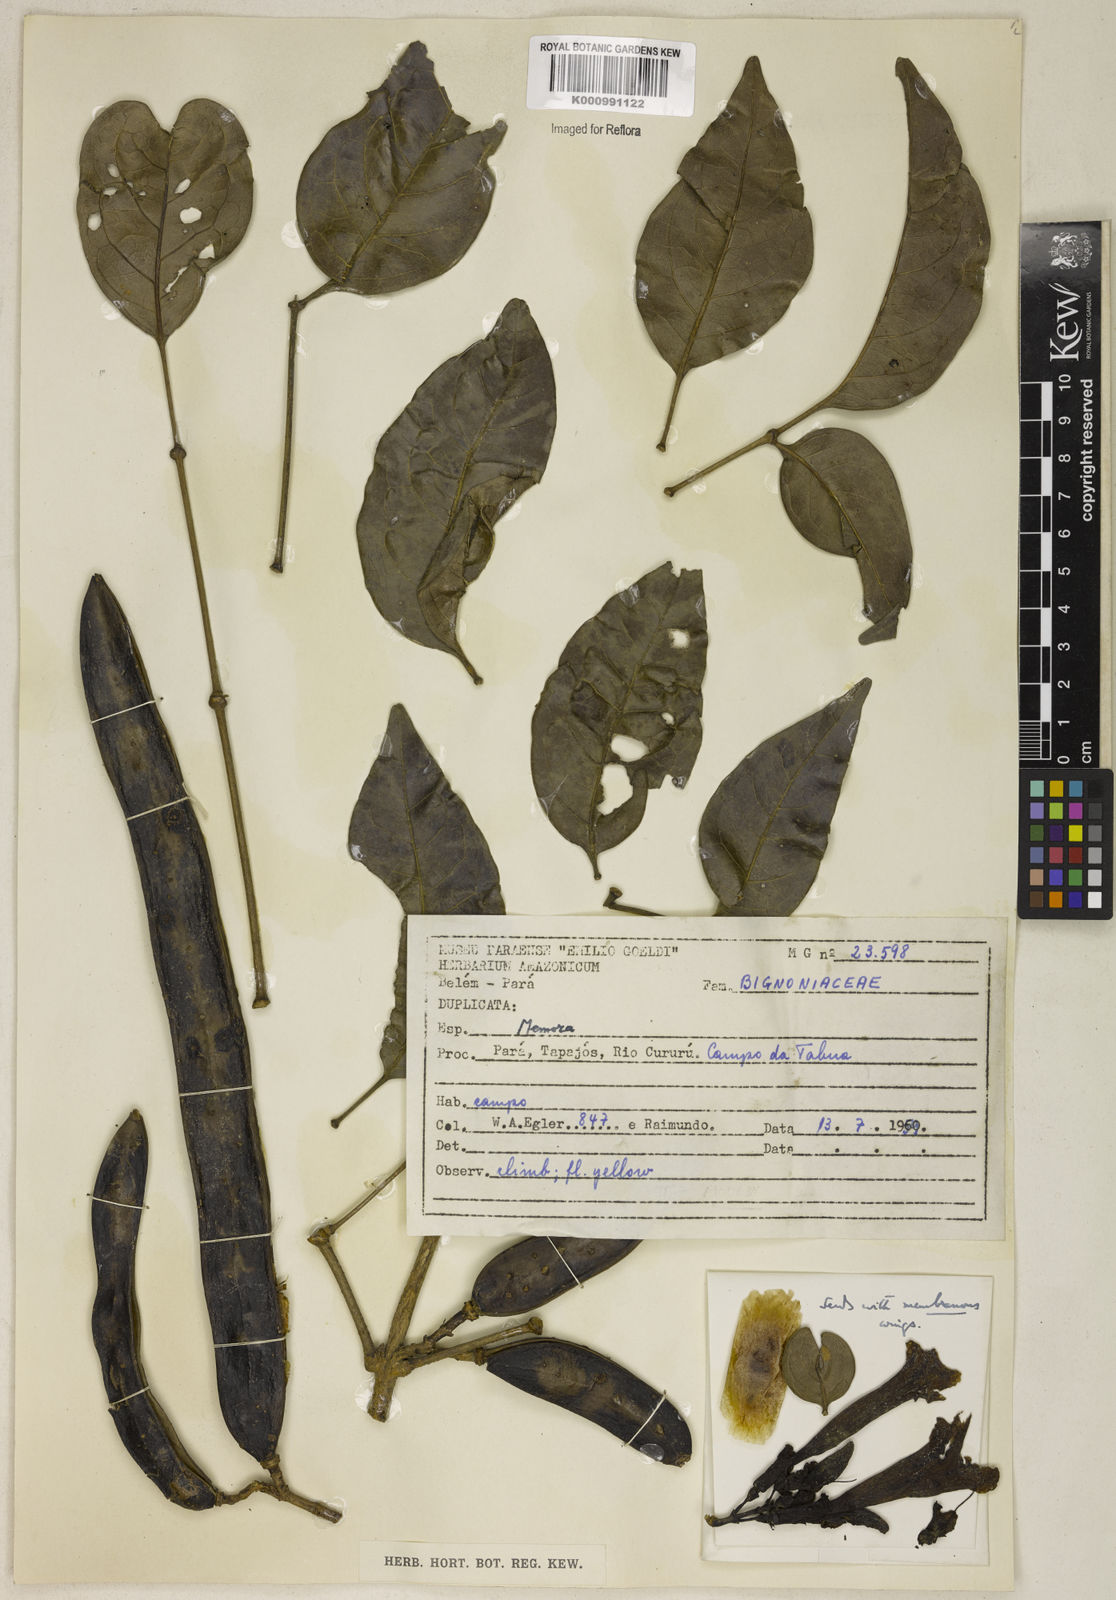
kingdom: Plantae
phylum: Tracheophyta
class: Magnoliopsida
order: Lamiales
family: Bignoniaceae
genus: Adenocalymma
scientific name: Adenocalymma
